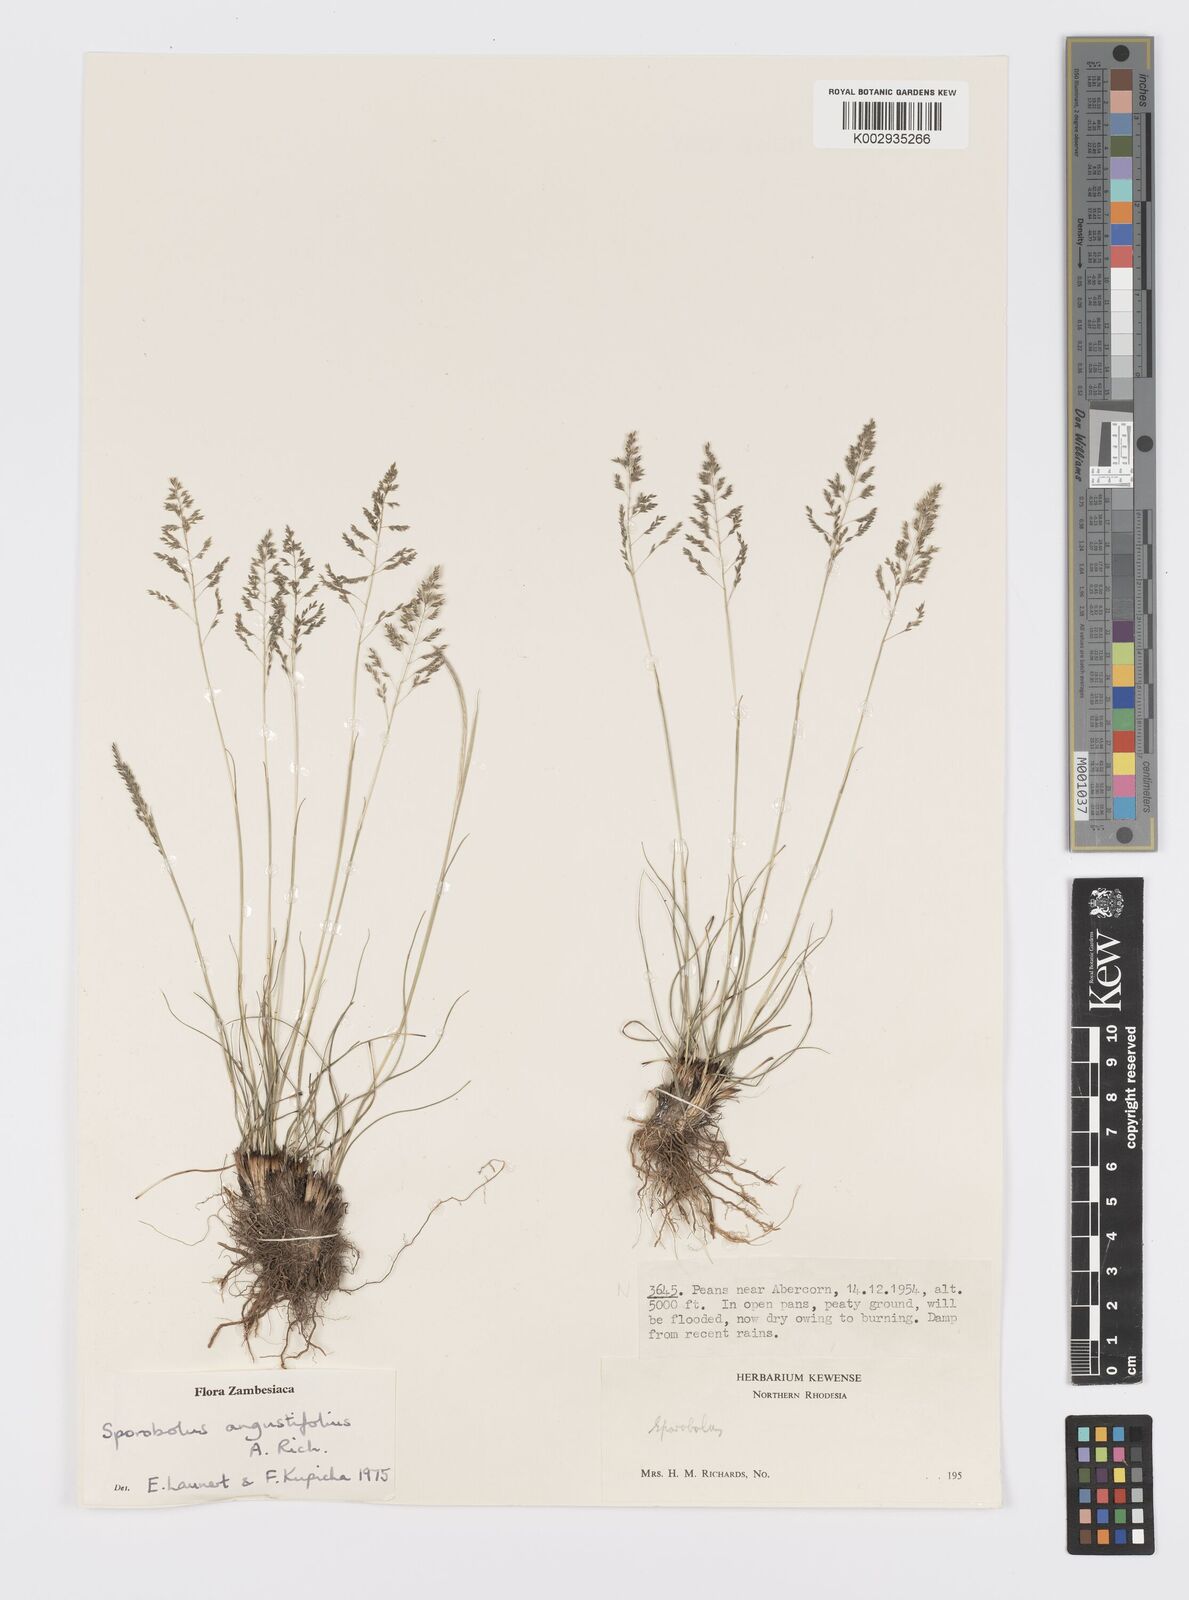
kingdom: Plantae
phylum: Tracheophyta
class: Liliopsida
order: Poales
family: Poaceae
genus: Sporobolus
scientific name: Sporobolus angustifolius
